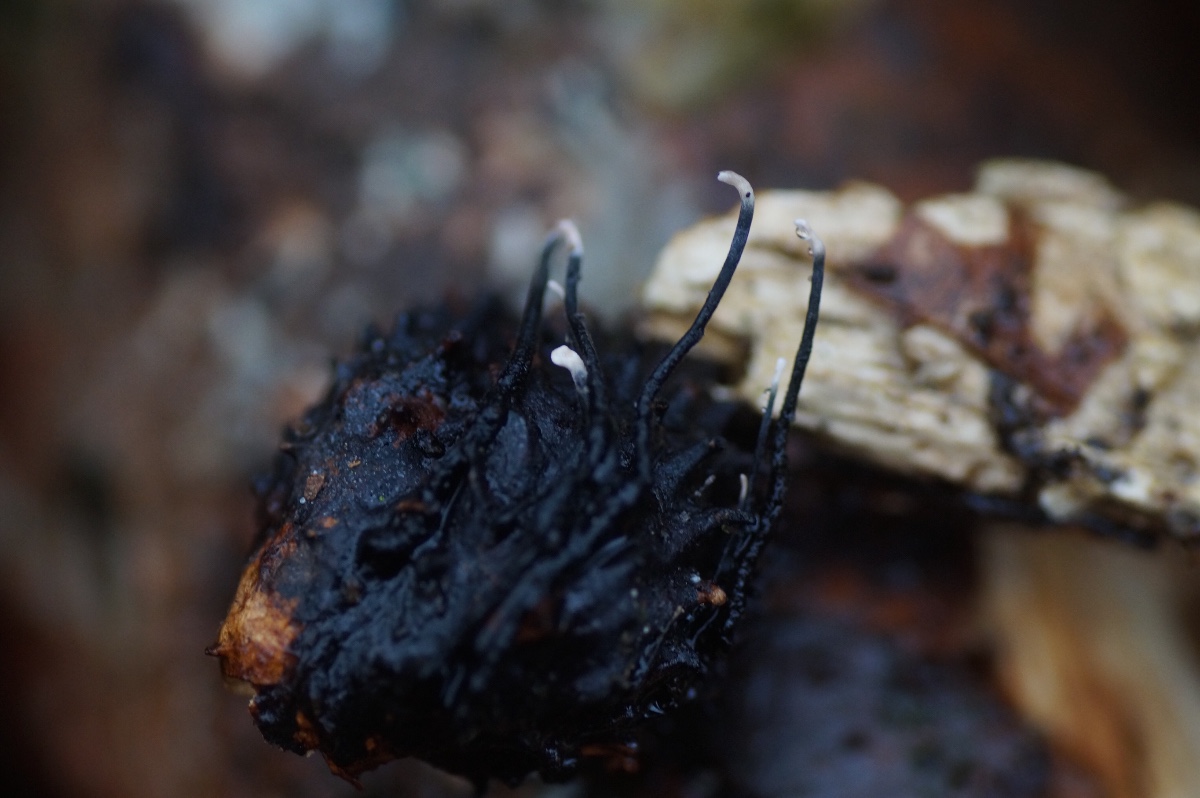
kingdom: Fungi
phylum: Ascomycota
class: Sordariomycetes
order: Xylariales
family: Xylariaceae
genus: Xylaria
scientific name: Xylaria carpophila
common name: bogskål-stødsvamp
